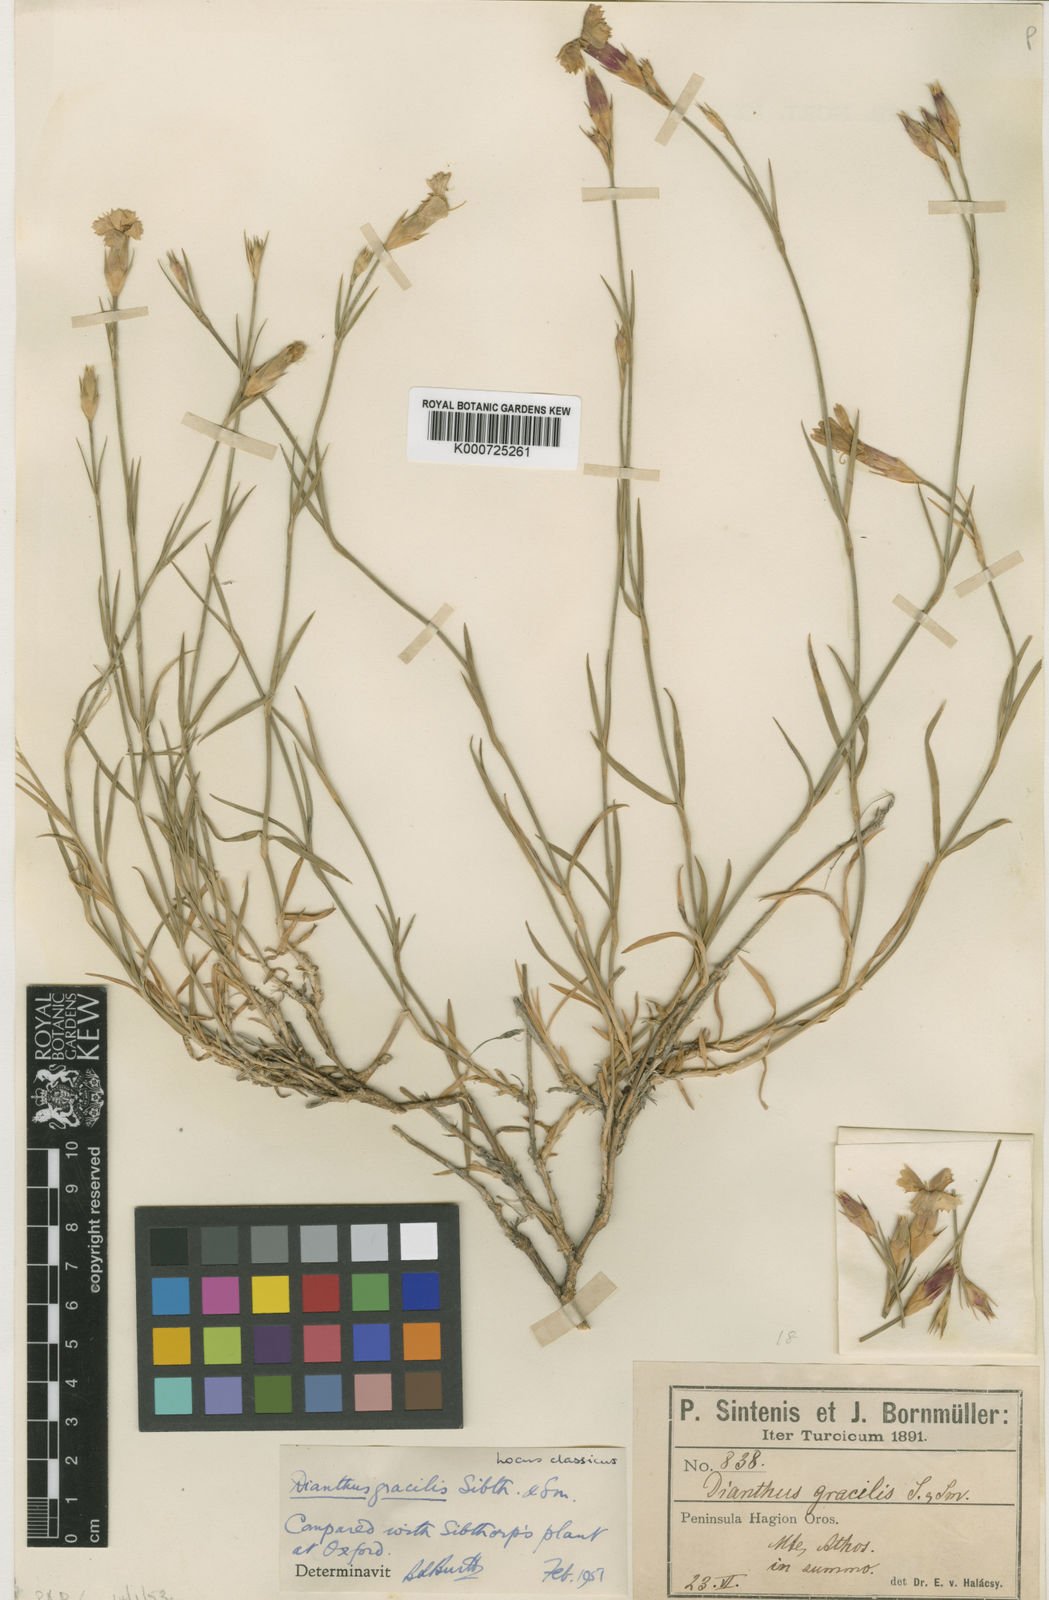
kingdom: Plantae
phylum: Tracheophyta
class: Magnoliopsida
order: Caryophyllales
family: Caryophyllaceae
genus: Dianthus
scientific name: Dianthus gracilis
